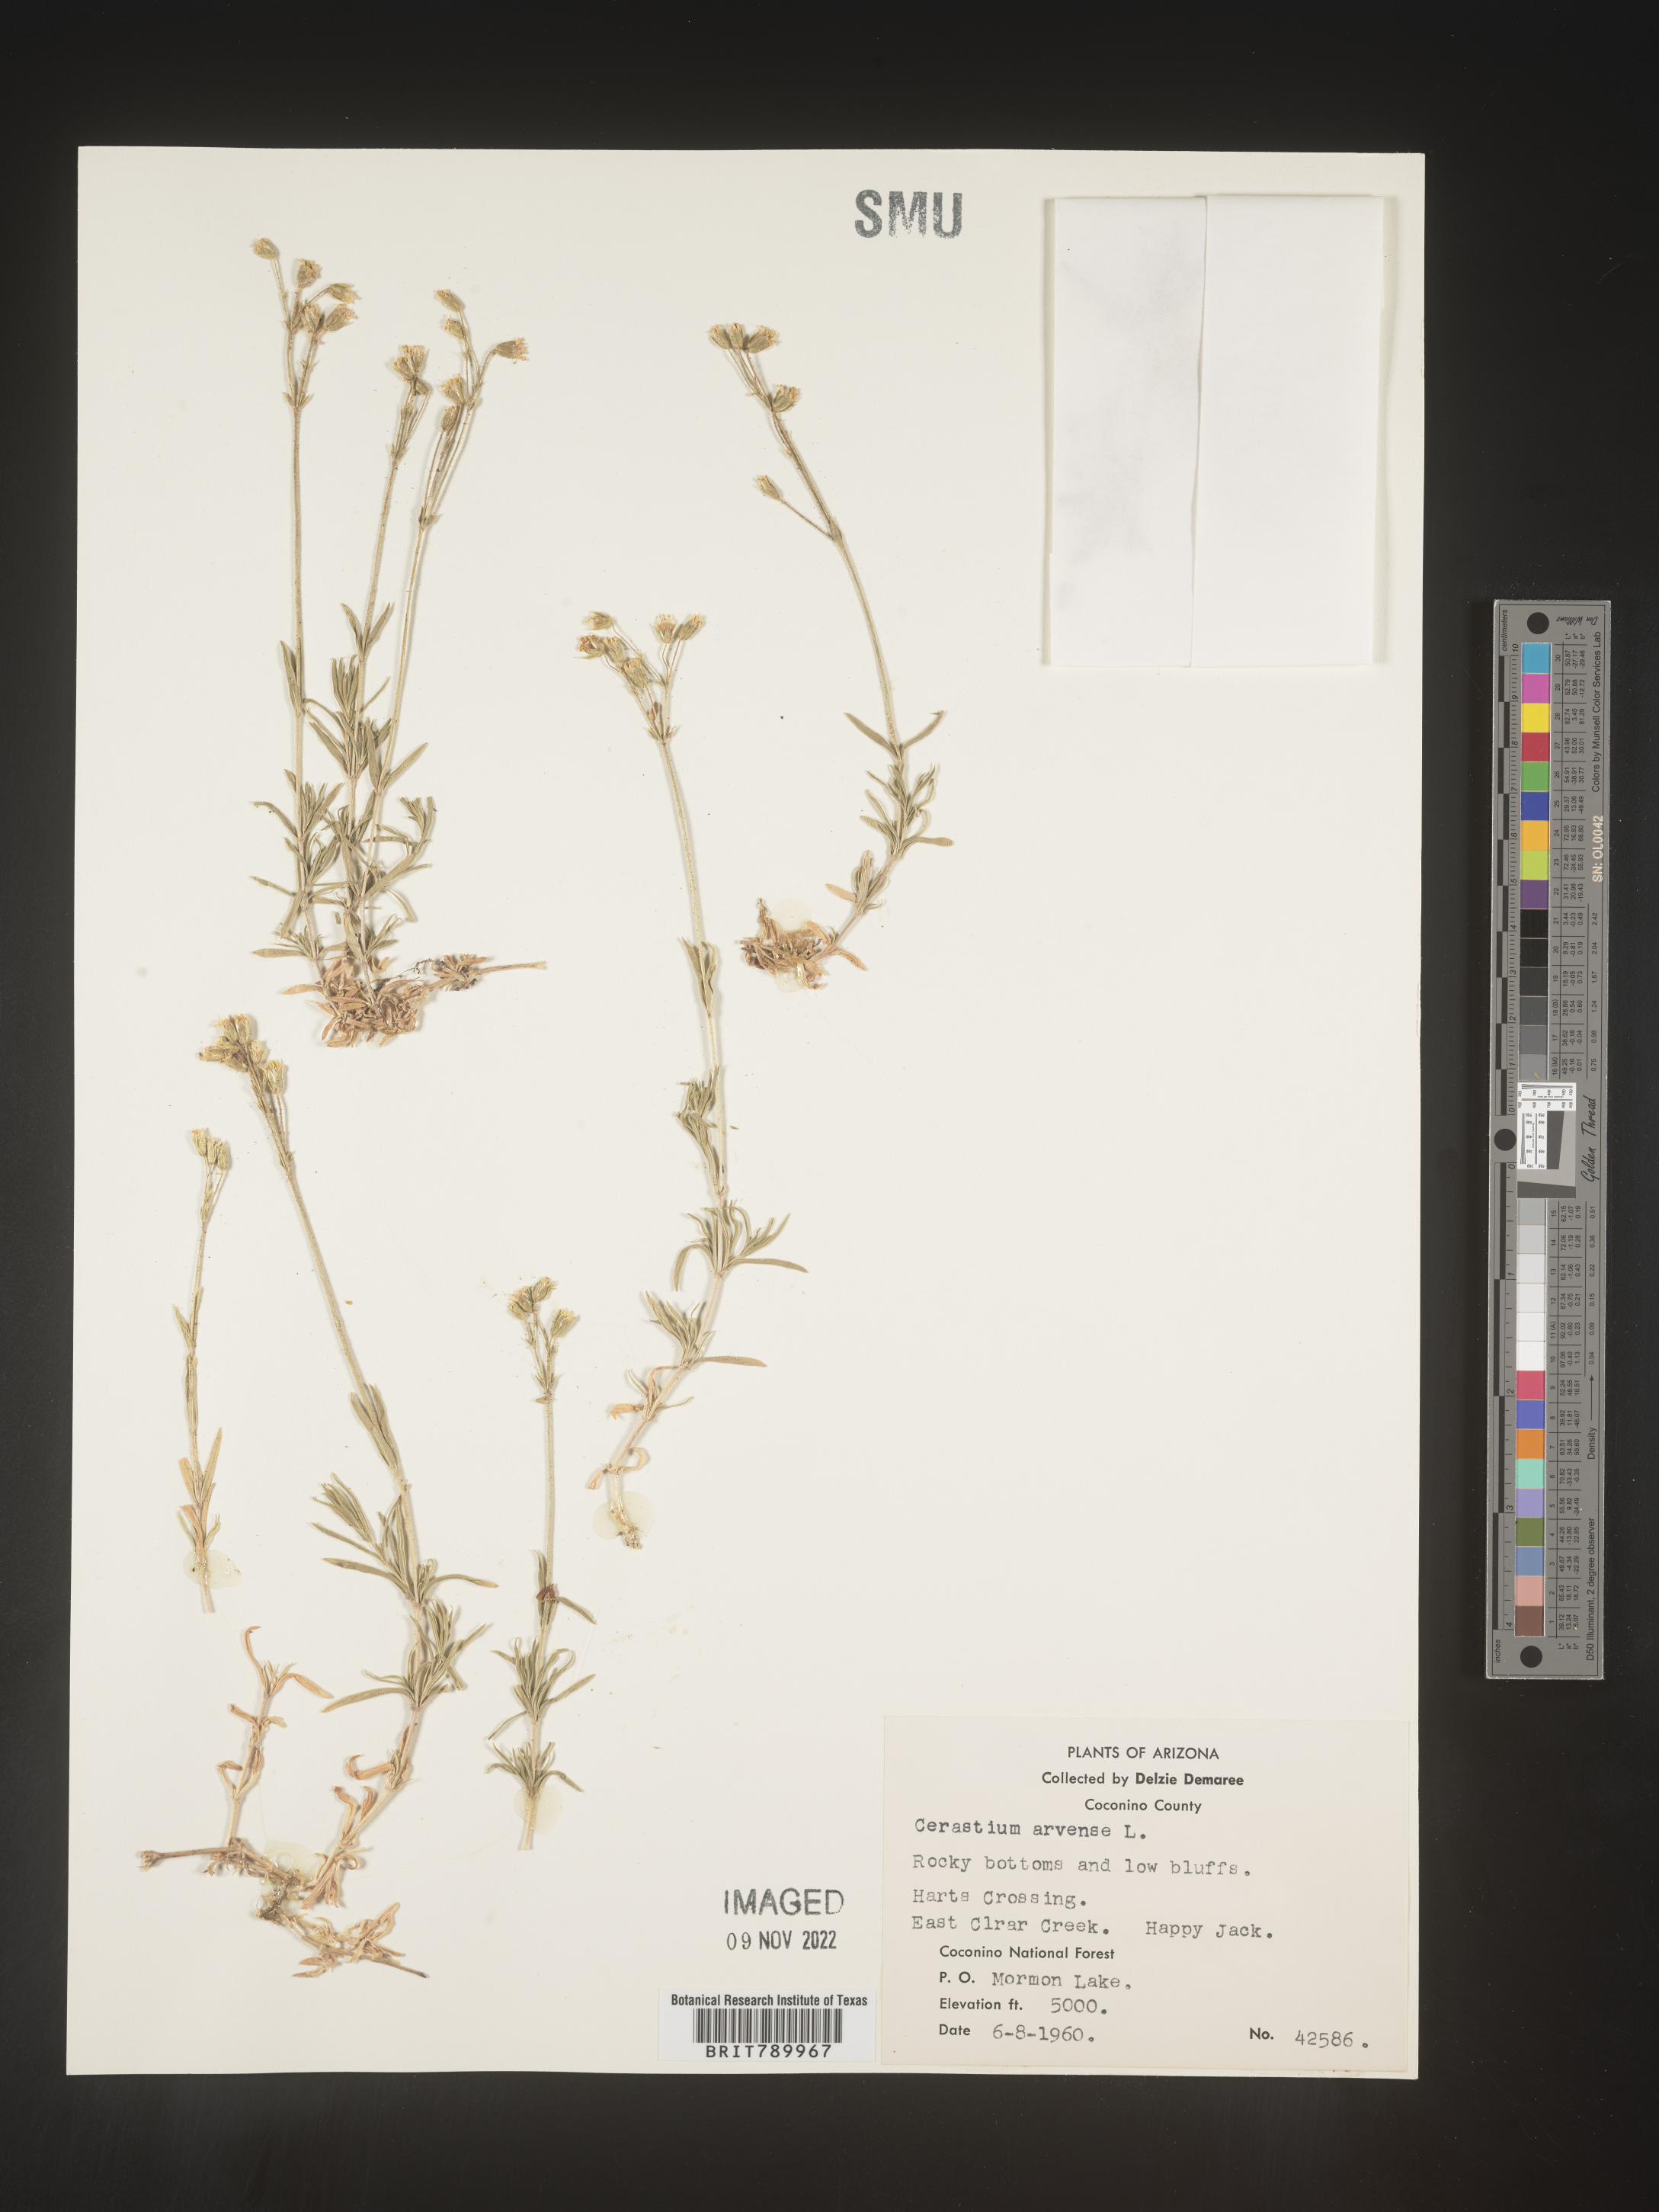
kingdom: Plantae
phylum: Tracheophyta
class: Magnoliopsida
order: Caryophyllales
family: Caryophyllaceae
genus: Cerastium
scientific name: Cerastium arvense
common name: Field mouse-ear
